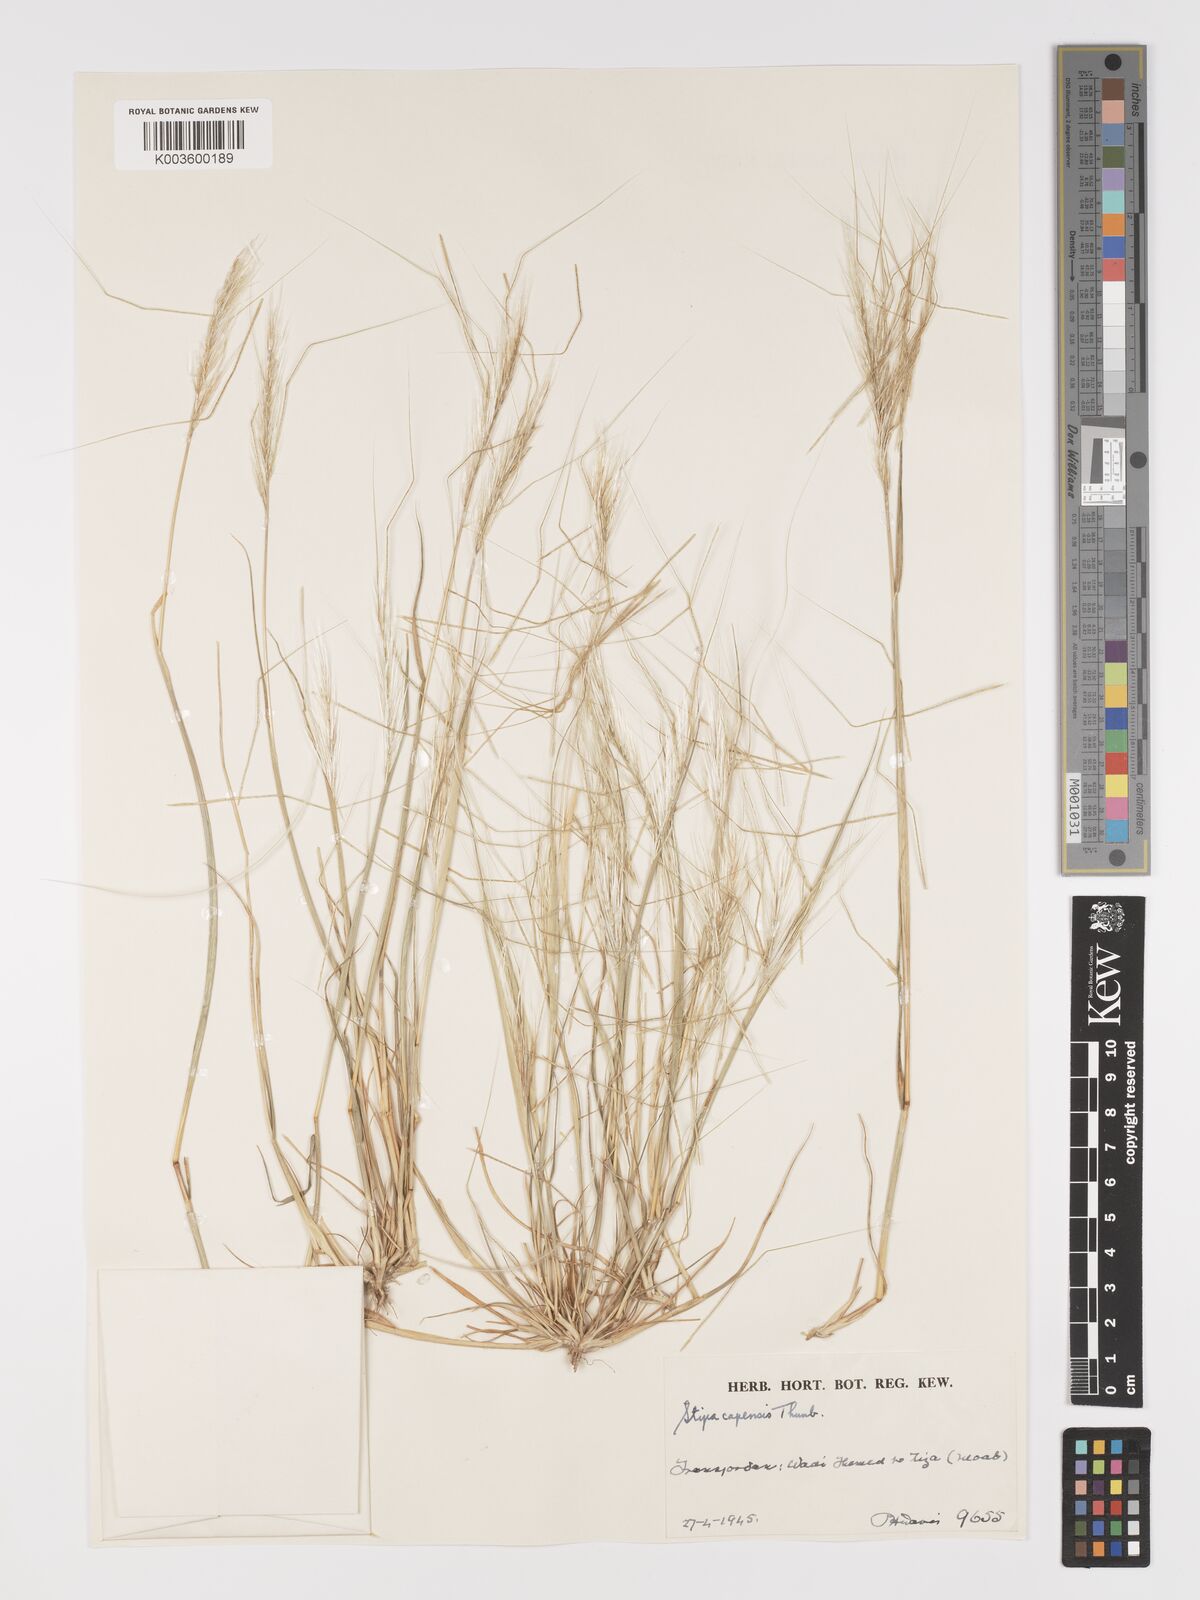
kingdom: Plantae
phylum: Tracheophyta
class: Liliopsida
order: Poales
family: Poaceae
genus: Stipellula
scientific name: Stipellula capensis
